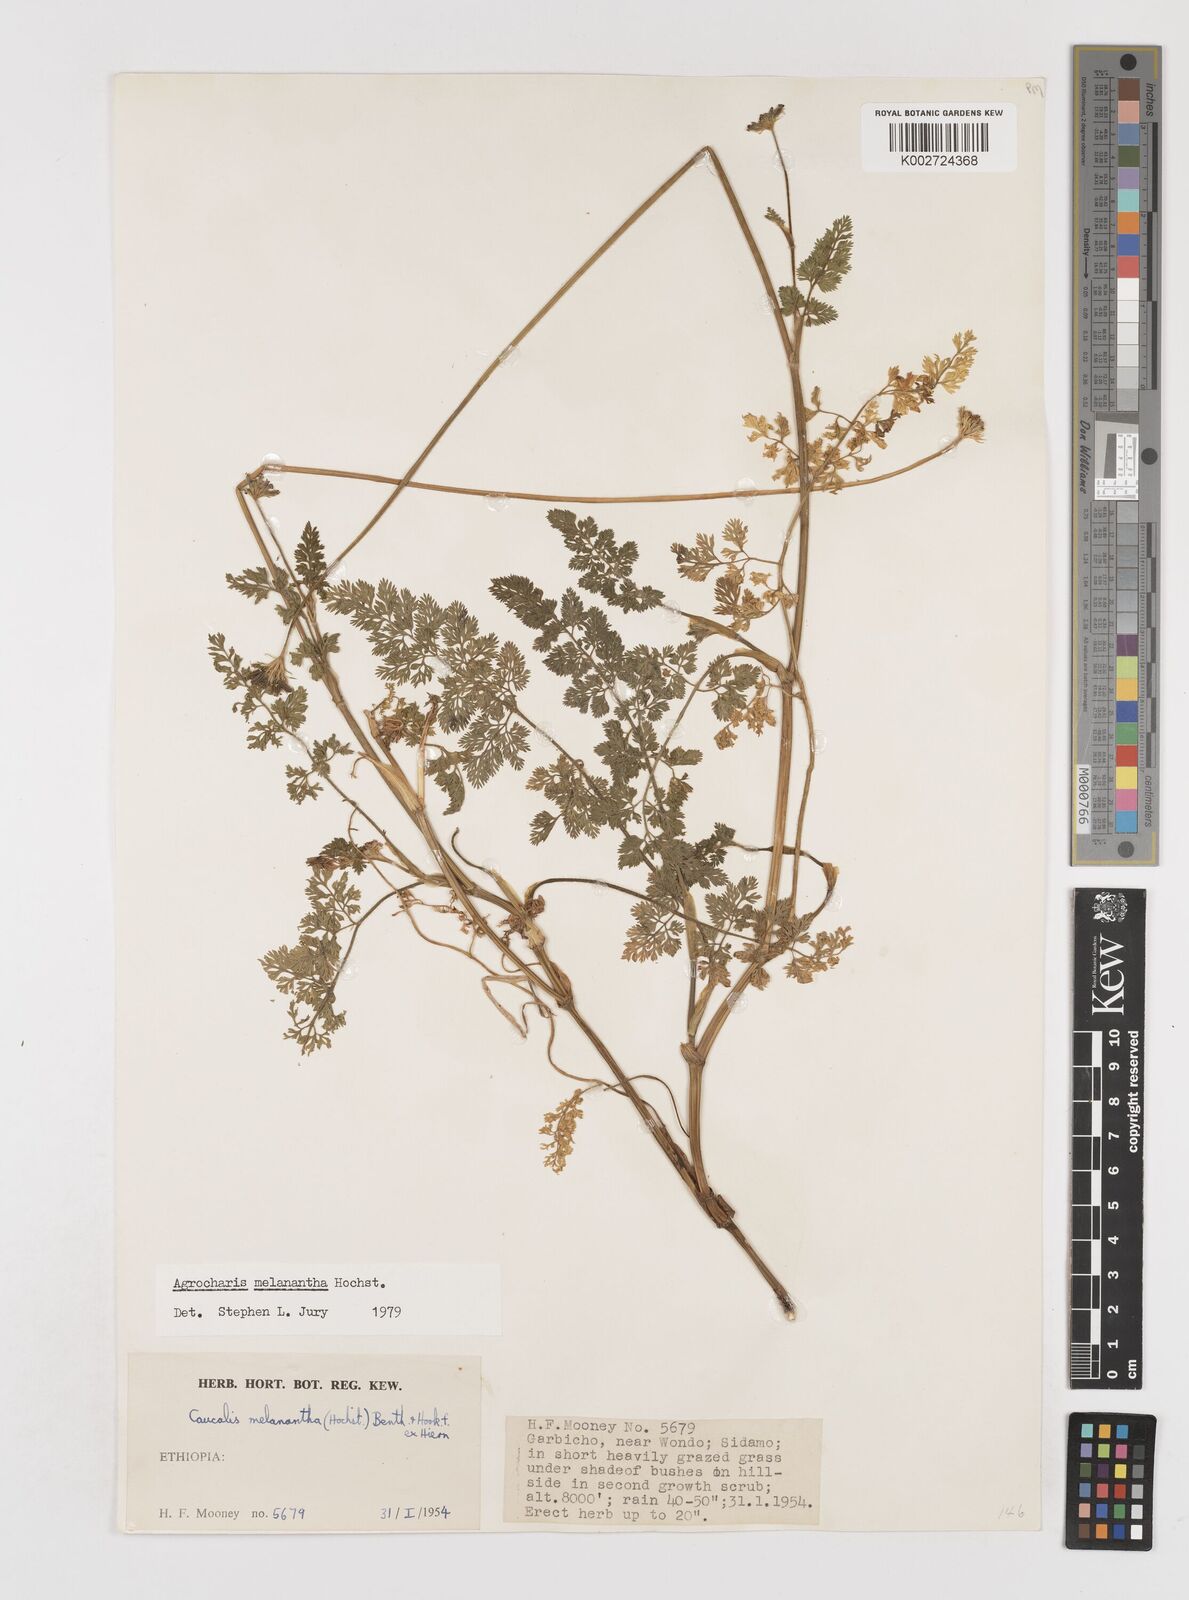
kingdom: Plantae
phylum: Tracheophyta
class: Magnoliopsida
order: Apiales
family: Apiaceae
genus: Daucus
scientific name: Daucus melananthus
